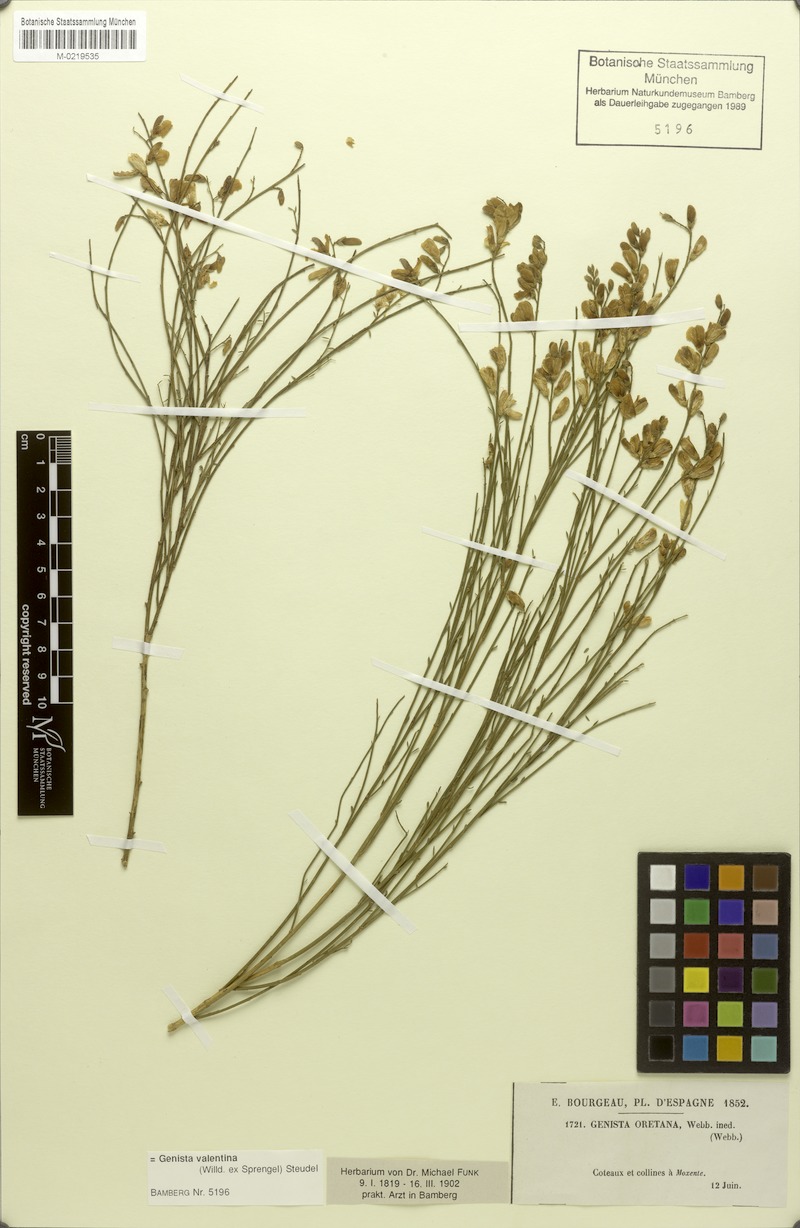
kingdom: Plantae
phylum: Tracheophyta
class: Magnoliopsida
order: Fabales
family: Fabaceae
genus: Genista
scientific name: Genista cinerea
